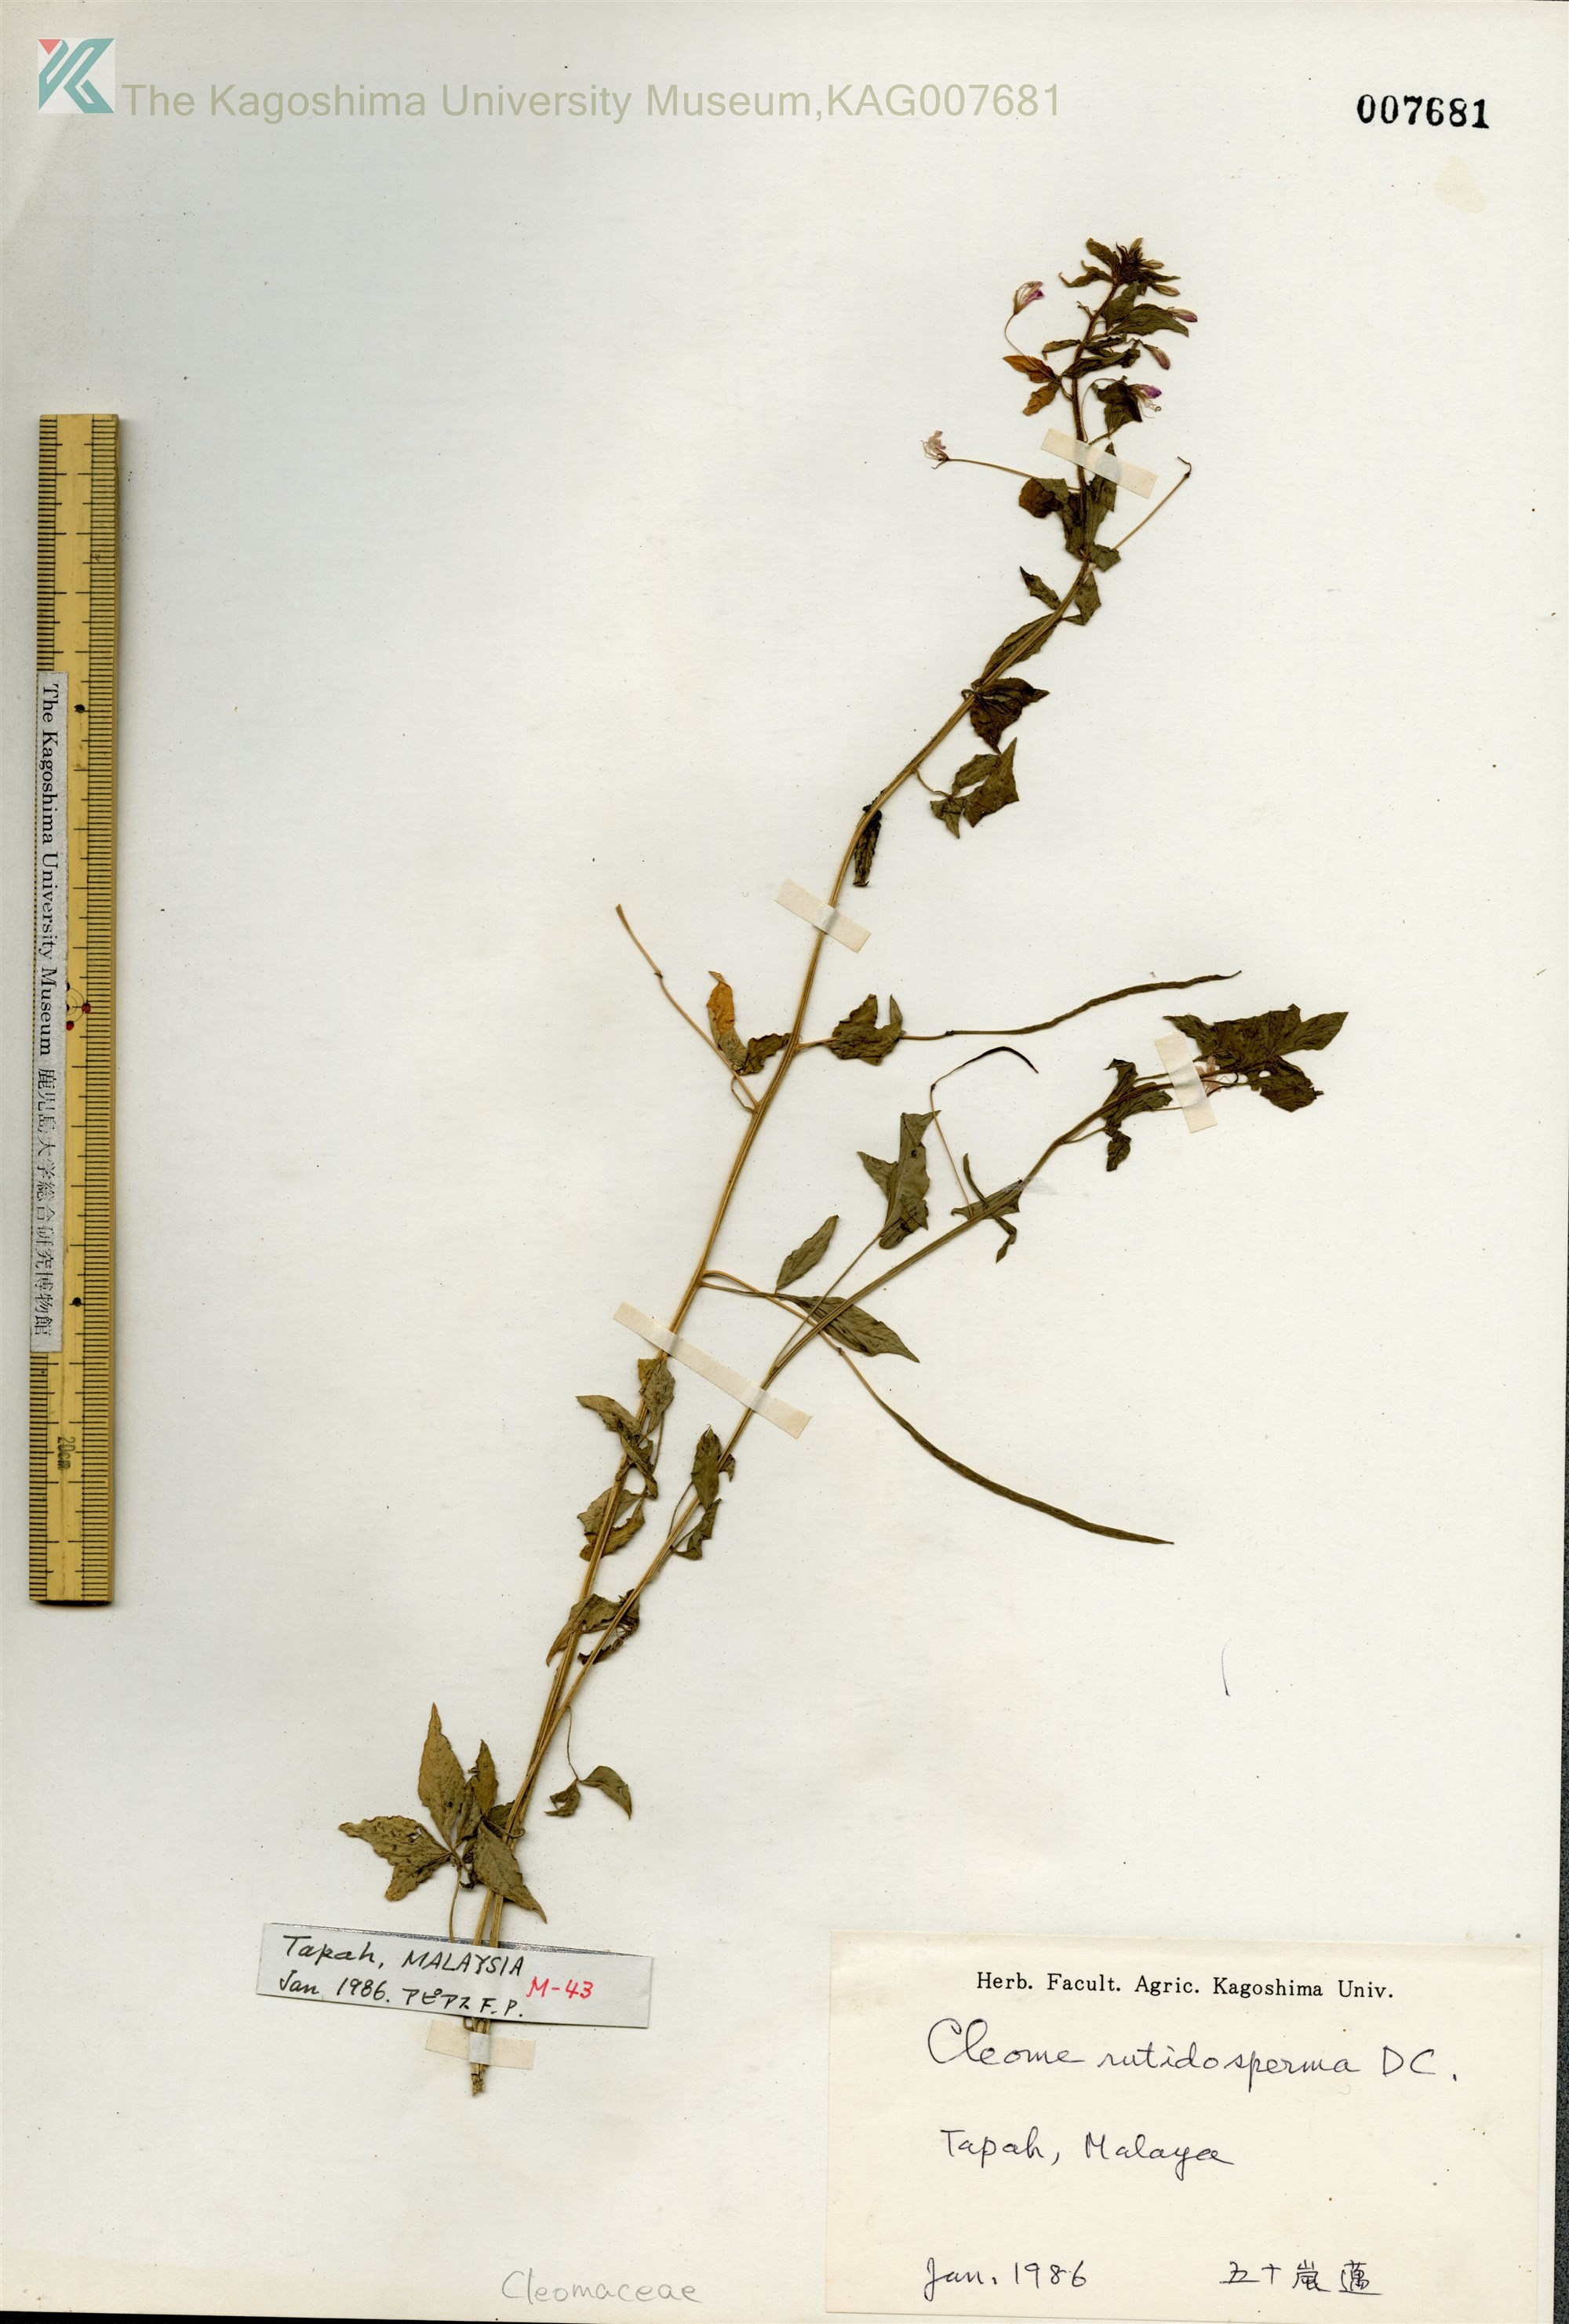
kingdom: Plantae
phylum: Tracheophyta
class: Magnoliopsida
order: Brassicales
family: Cleomaceae
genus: Sieruela
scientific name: Sieruela rutidosperma
